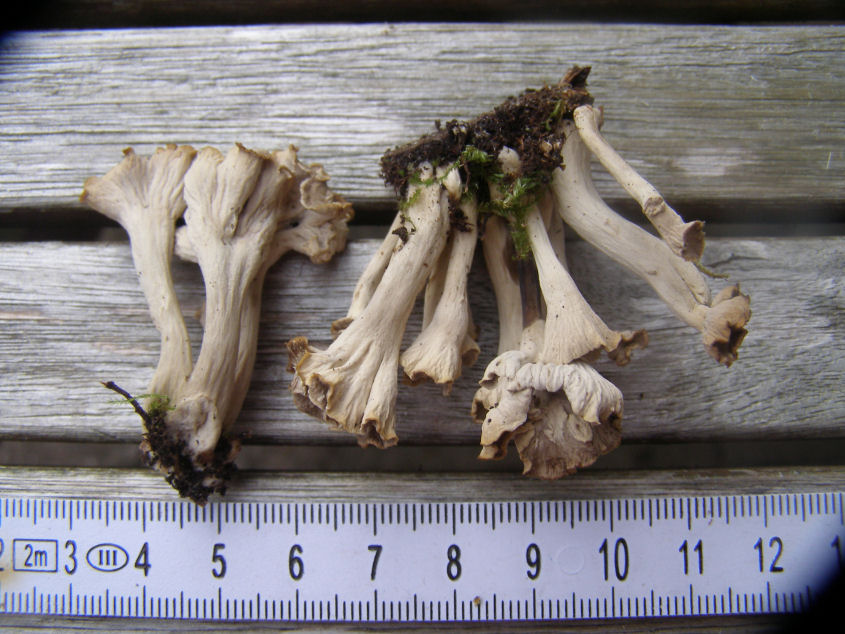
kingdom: Fungi
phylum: Basidiomycota
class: Agaricomycetes
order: Cantharellales
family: Hydnaceae
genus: Craterellus
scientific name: Craterellus undulatus
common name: liden kantarel
